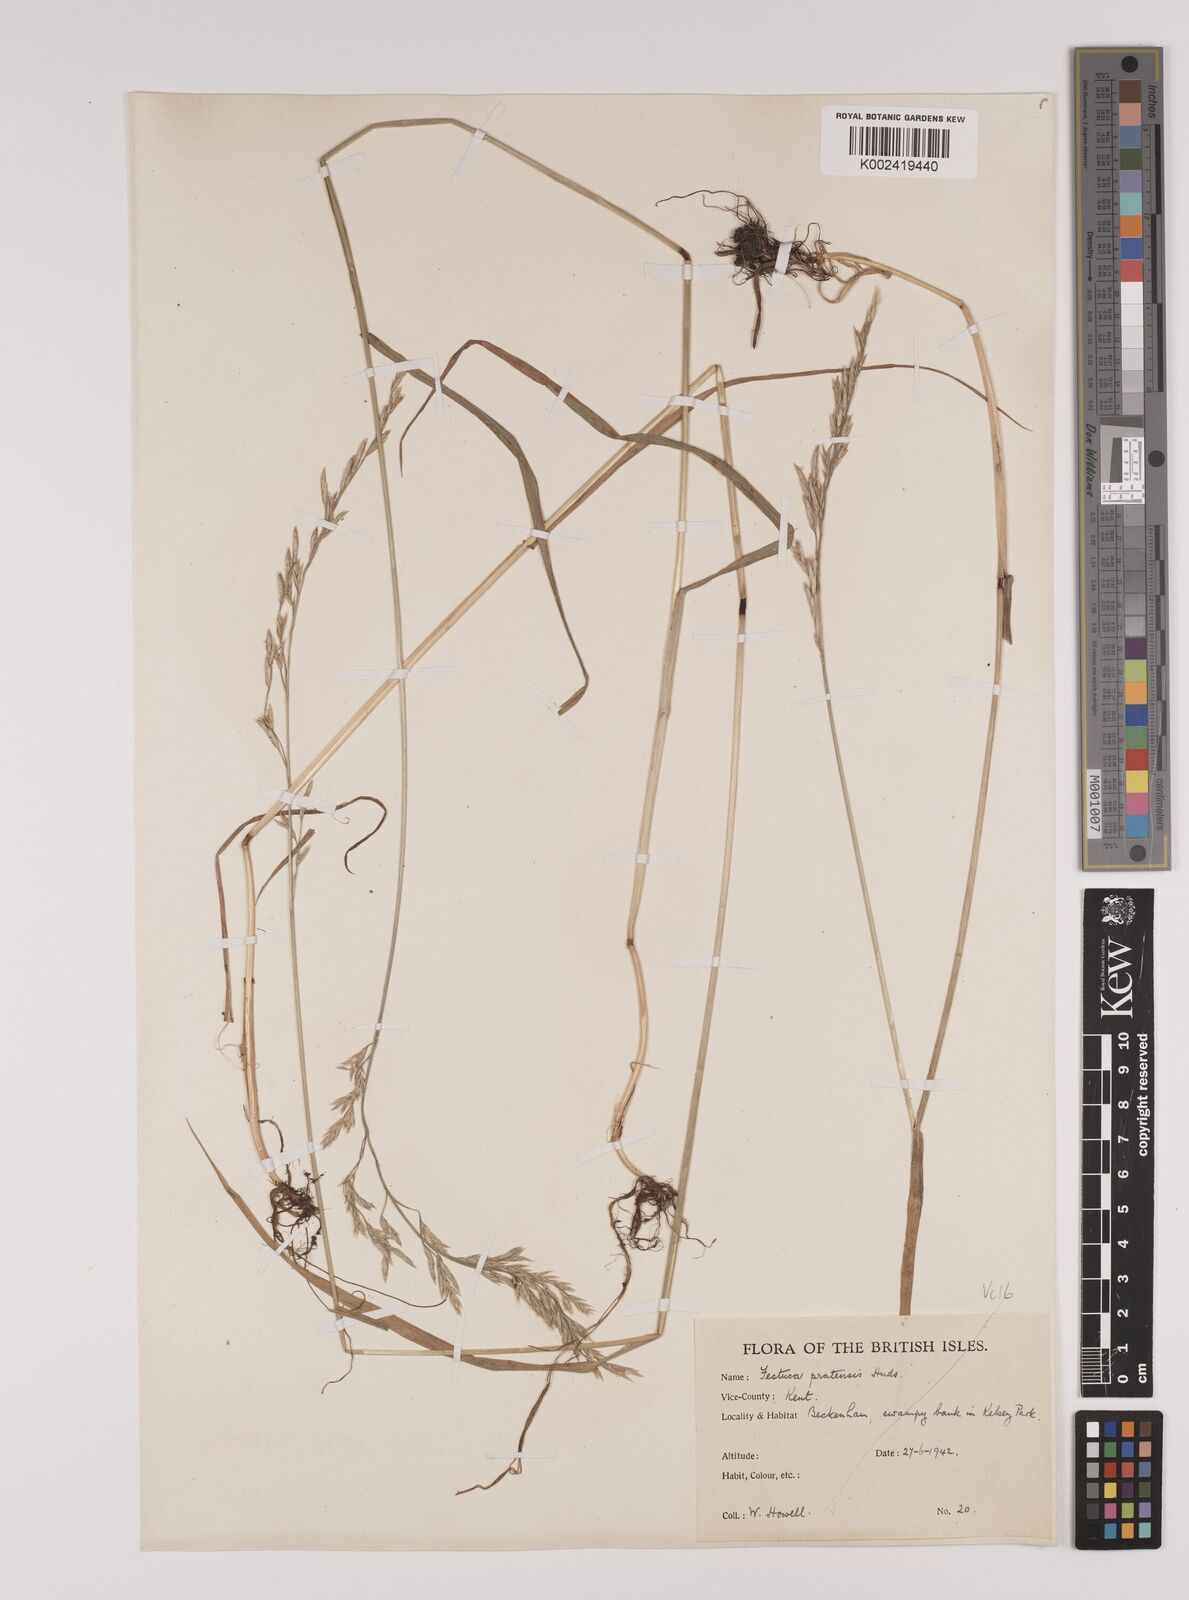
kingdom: Plantae
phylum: Tracheophyta
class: Liliopsida
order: Poales
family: Poaceae
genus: Lolium
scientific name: Lolium pratense
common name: Dover grass
